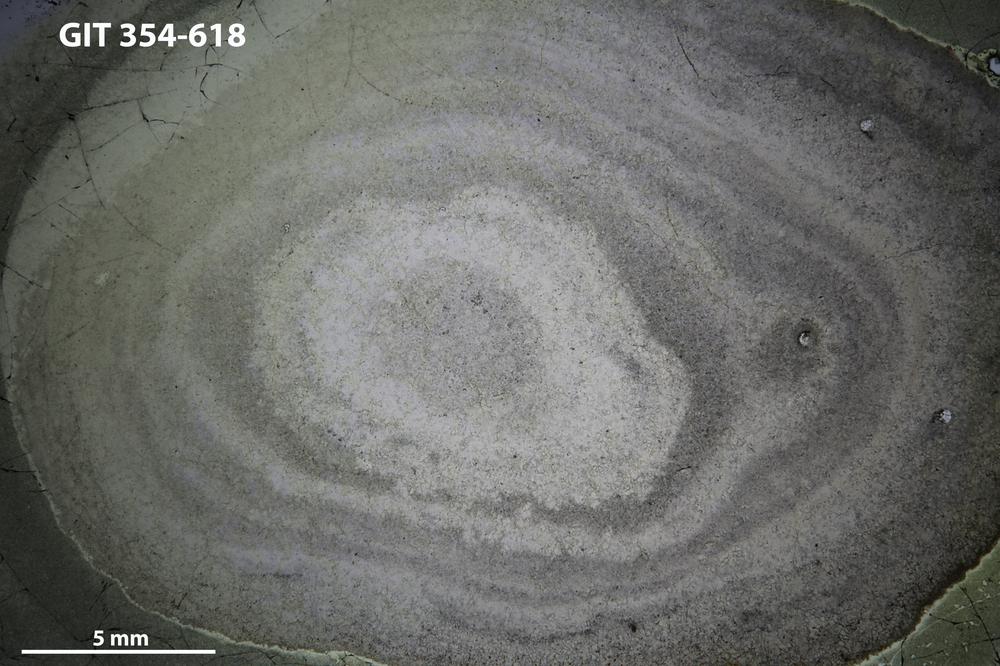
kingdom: Animalia
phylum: Porifera
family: Densastromatidae
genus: Densastroma
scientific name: Densastroma Actinostroma pexisum
